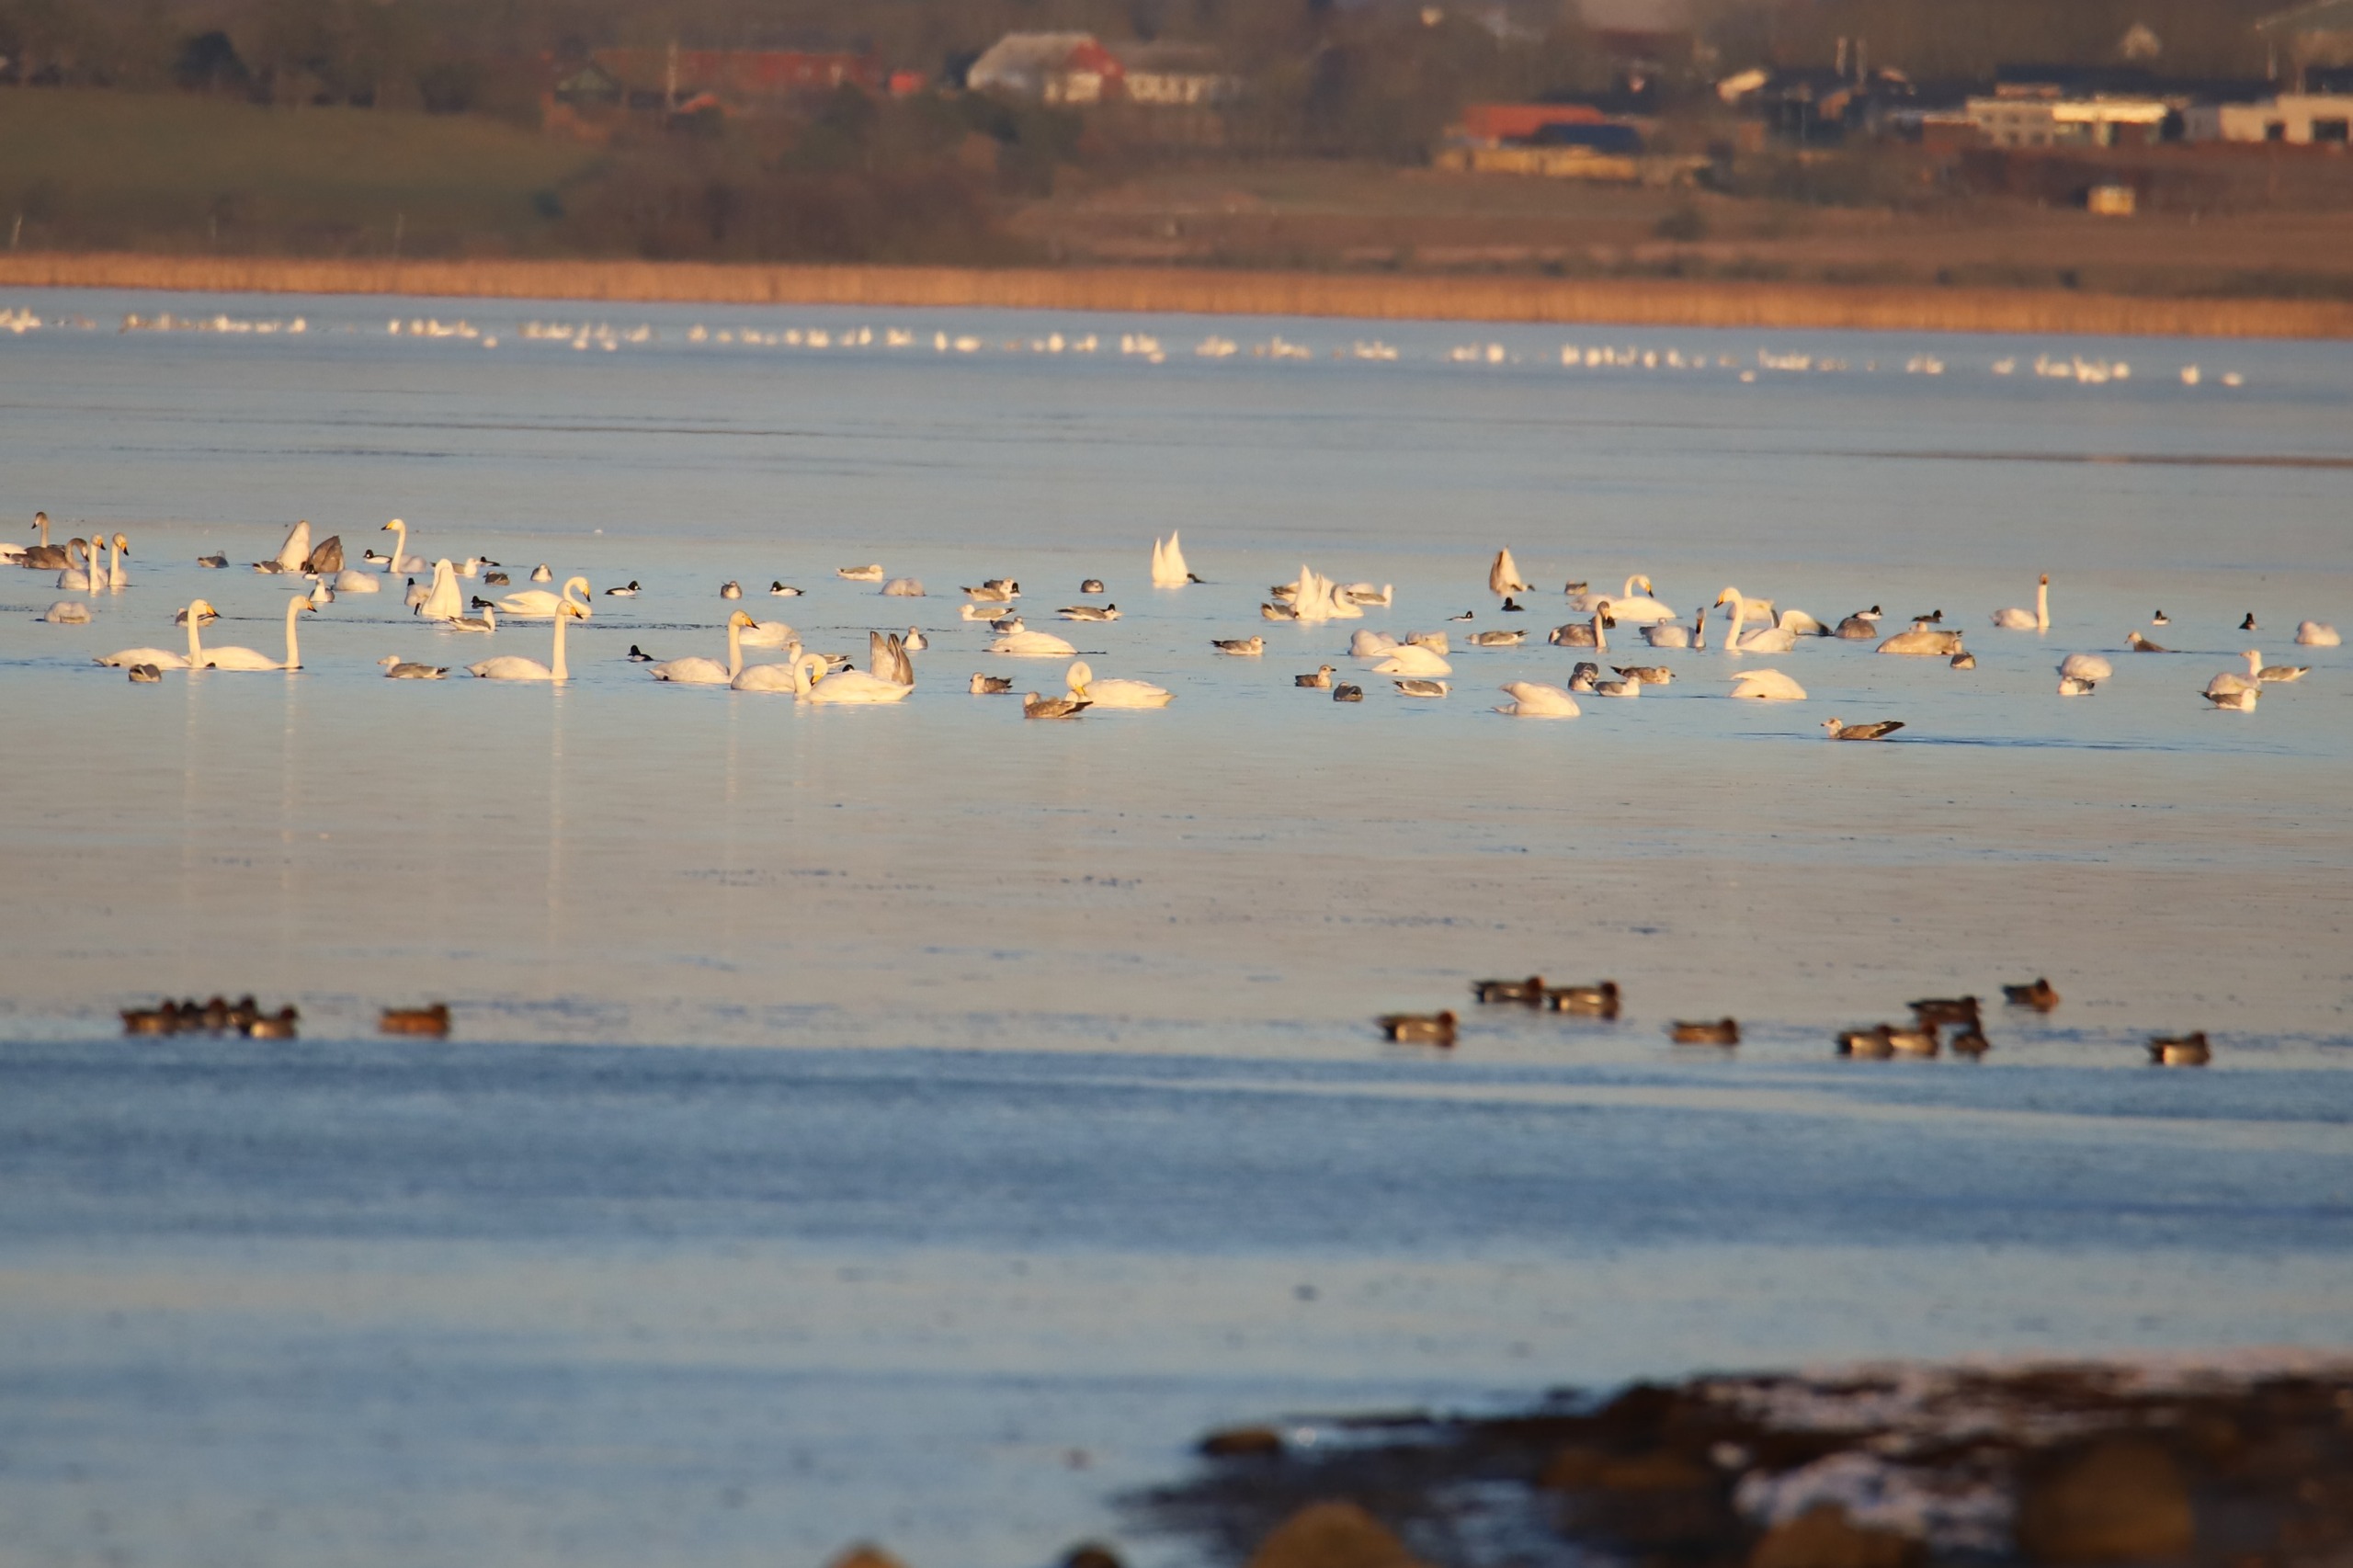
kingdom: Animalia
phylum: Chordata
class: Aves
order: Anseriformes
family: Anatidae
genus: Cygnus
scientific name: Cygnus cygnus
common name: Sangsvane
